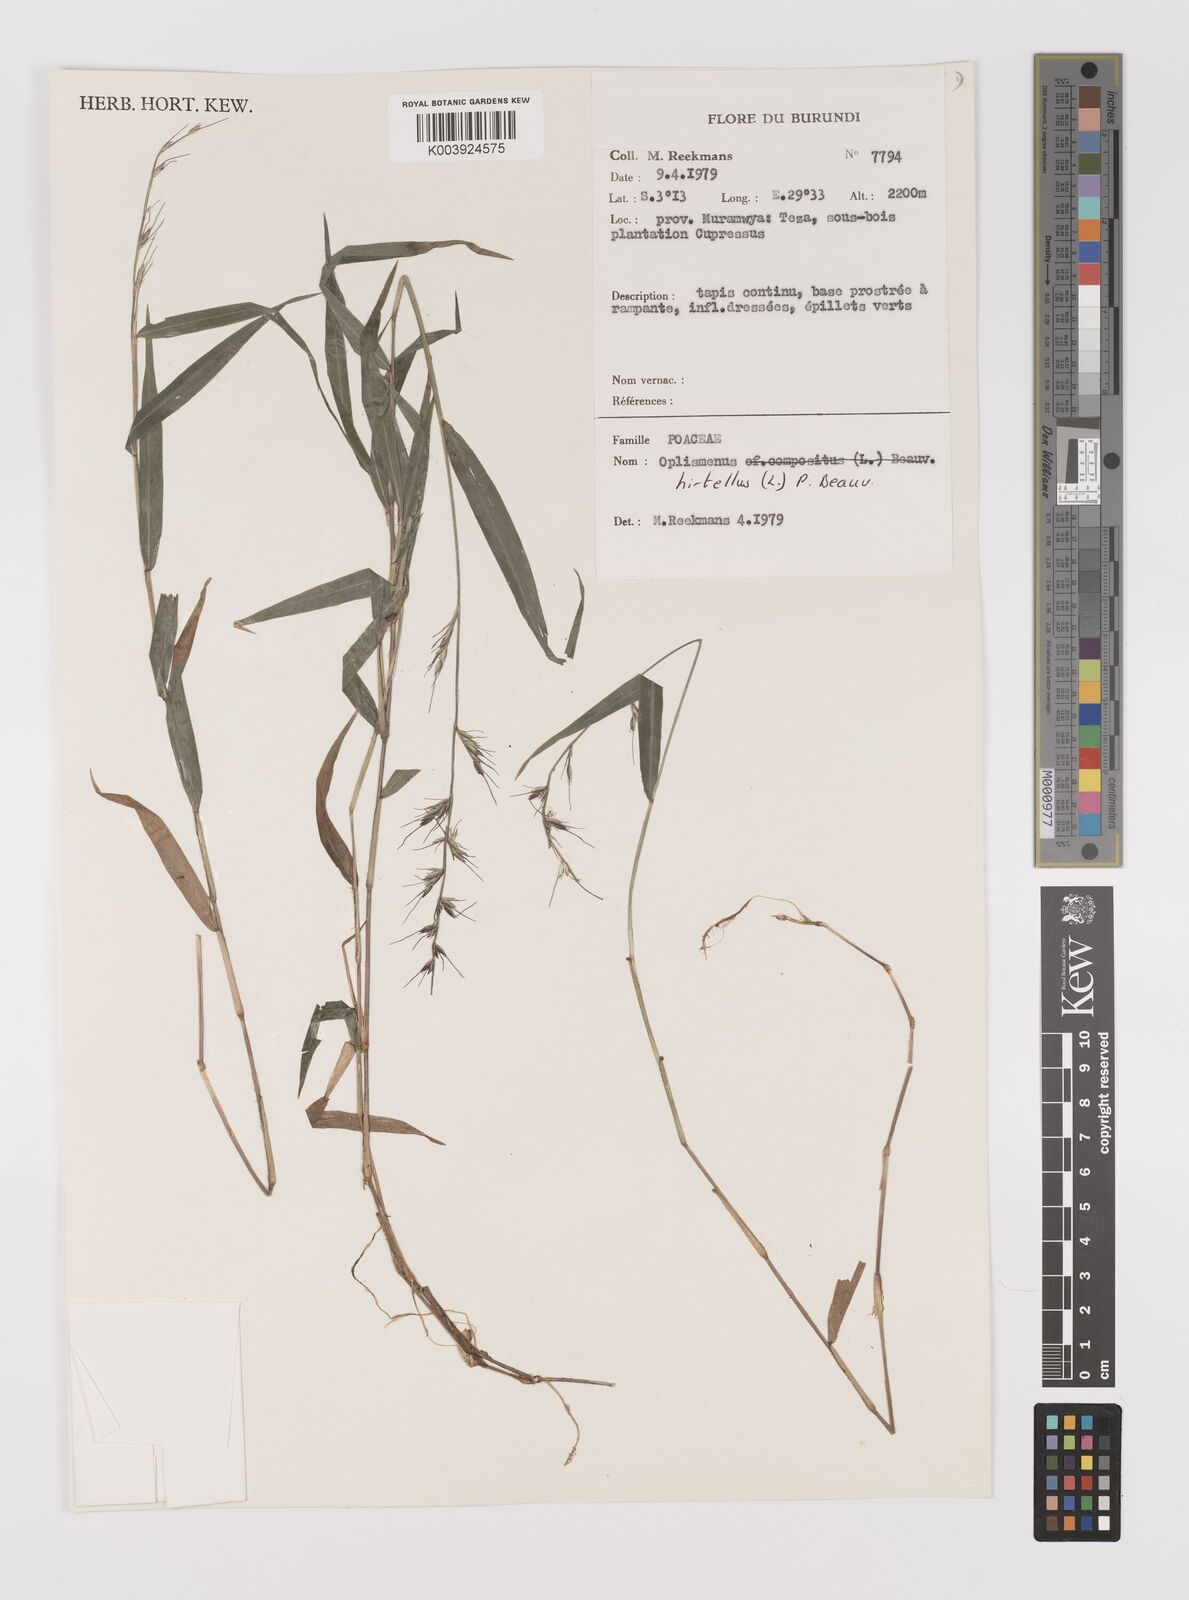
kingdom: Plantae
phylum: Tracheophyta
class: Liliopsida
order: Poales
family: Poaceae
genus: Oplismenus
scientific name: Oplismenus hirtellus
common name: Basketgrass
